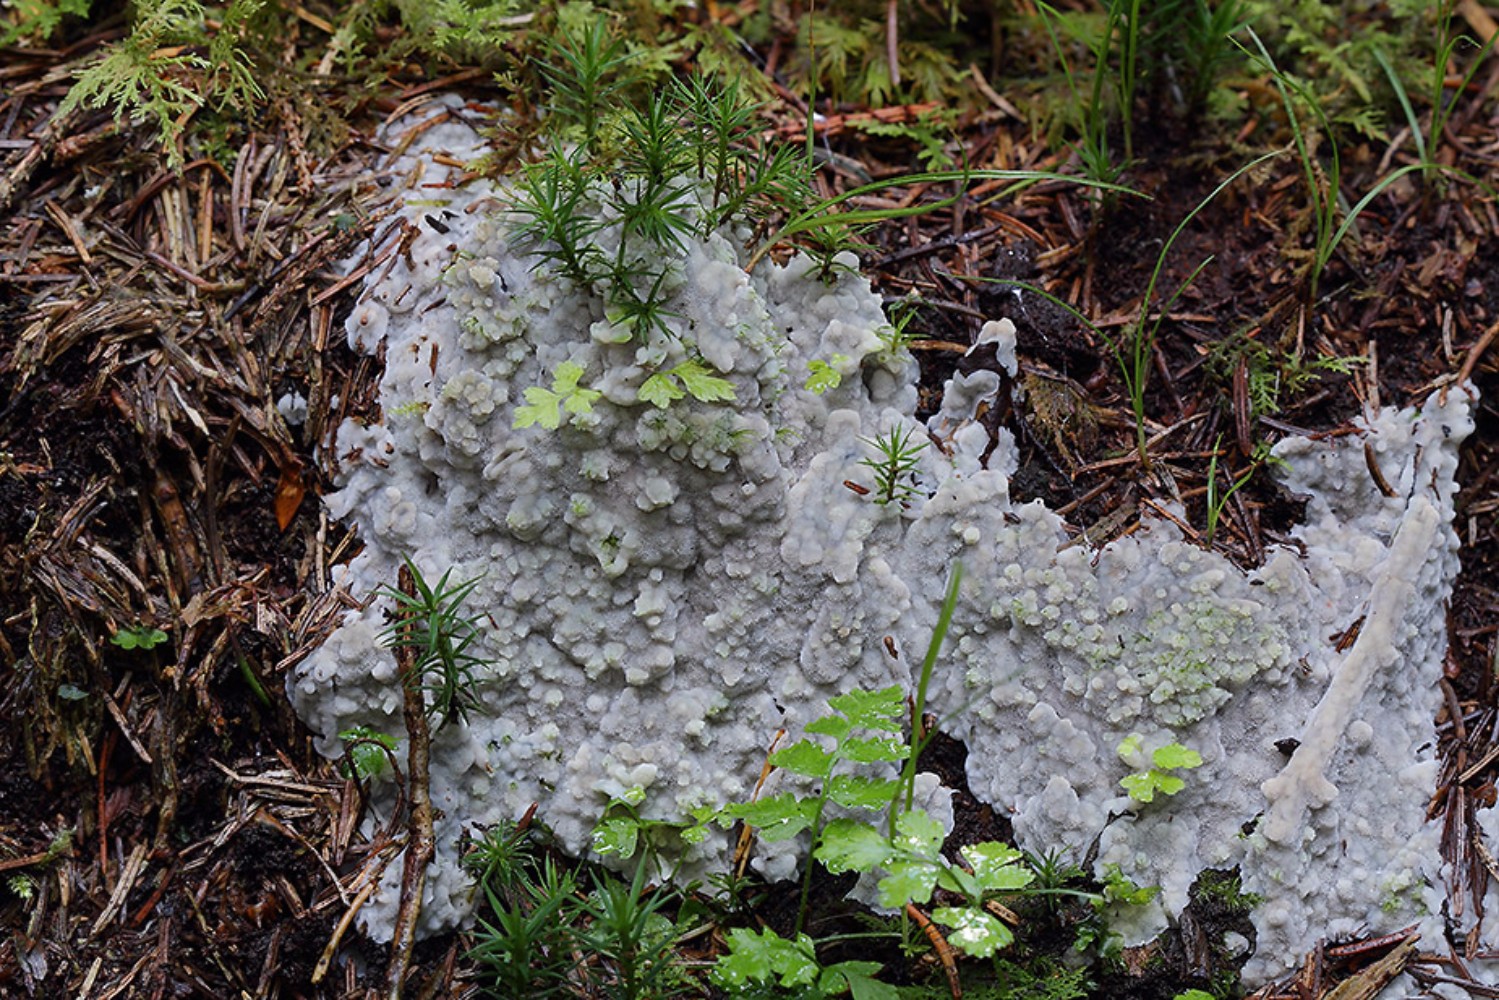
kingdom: Fungi
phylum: Basidiomycota
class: Agaricomycetes
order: Polyporales
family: Meruliaceae
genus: Physisporinus
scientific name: Physisporinus vitreus
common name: mastesvamp
